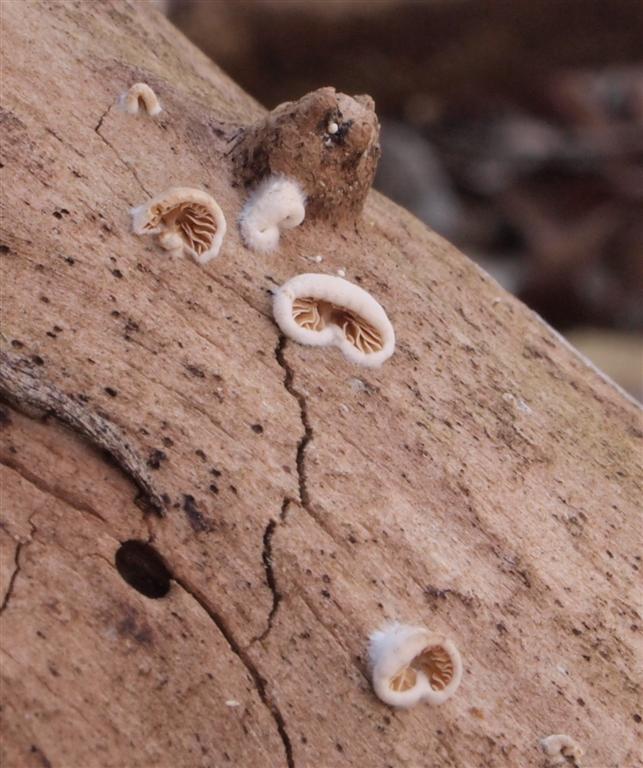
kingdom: Fungi
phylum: Basidiomycota
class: Agaricomycetes
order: Agaricales
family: Crepidotaceae
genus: Crepidotus
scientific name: Crepidotus cesatii
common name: almindelig muslingesvamp
